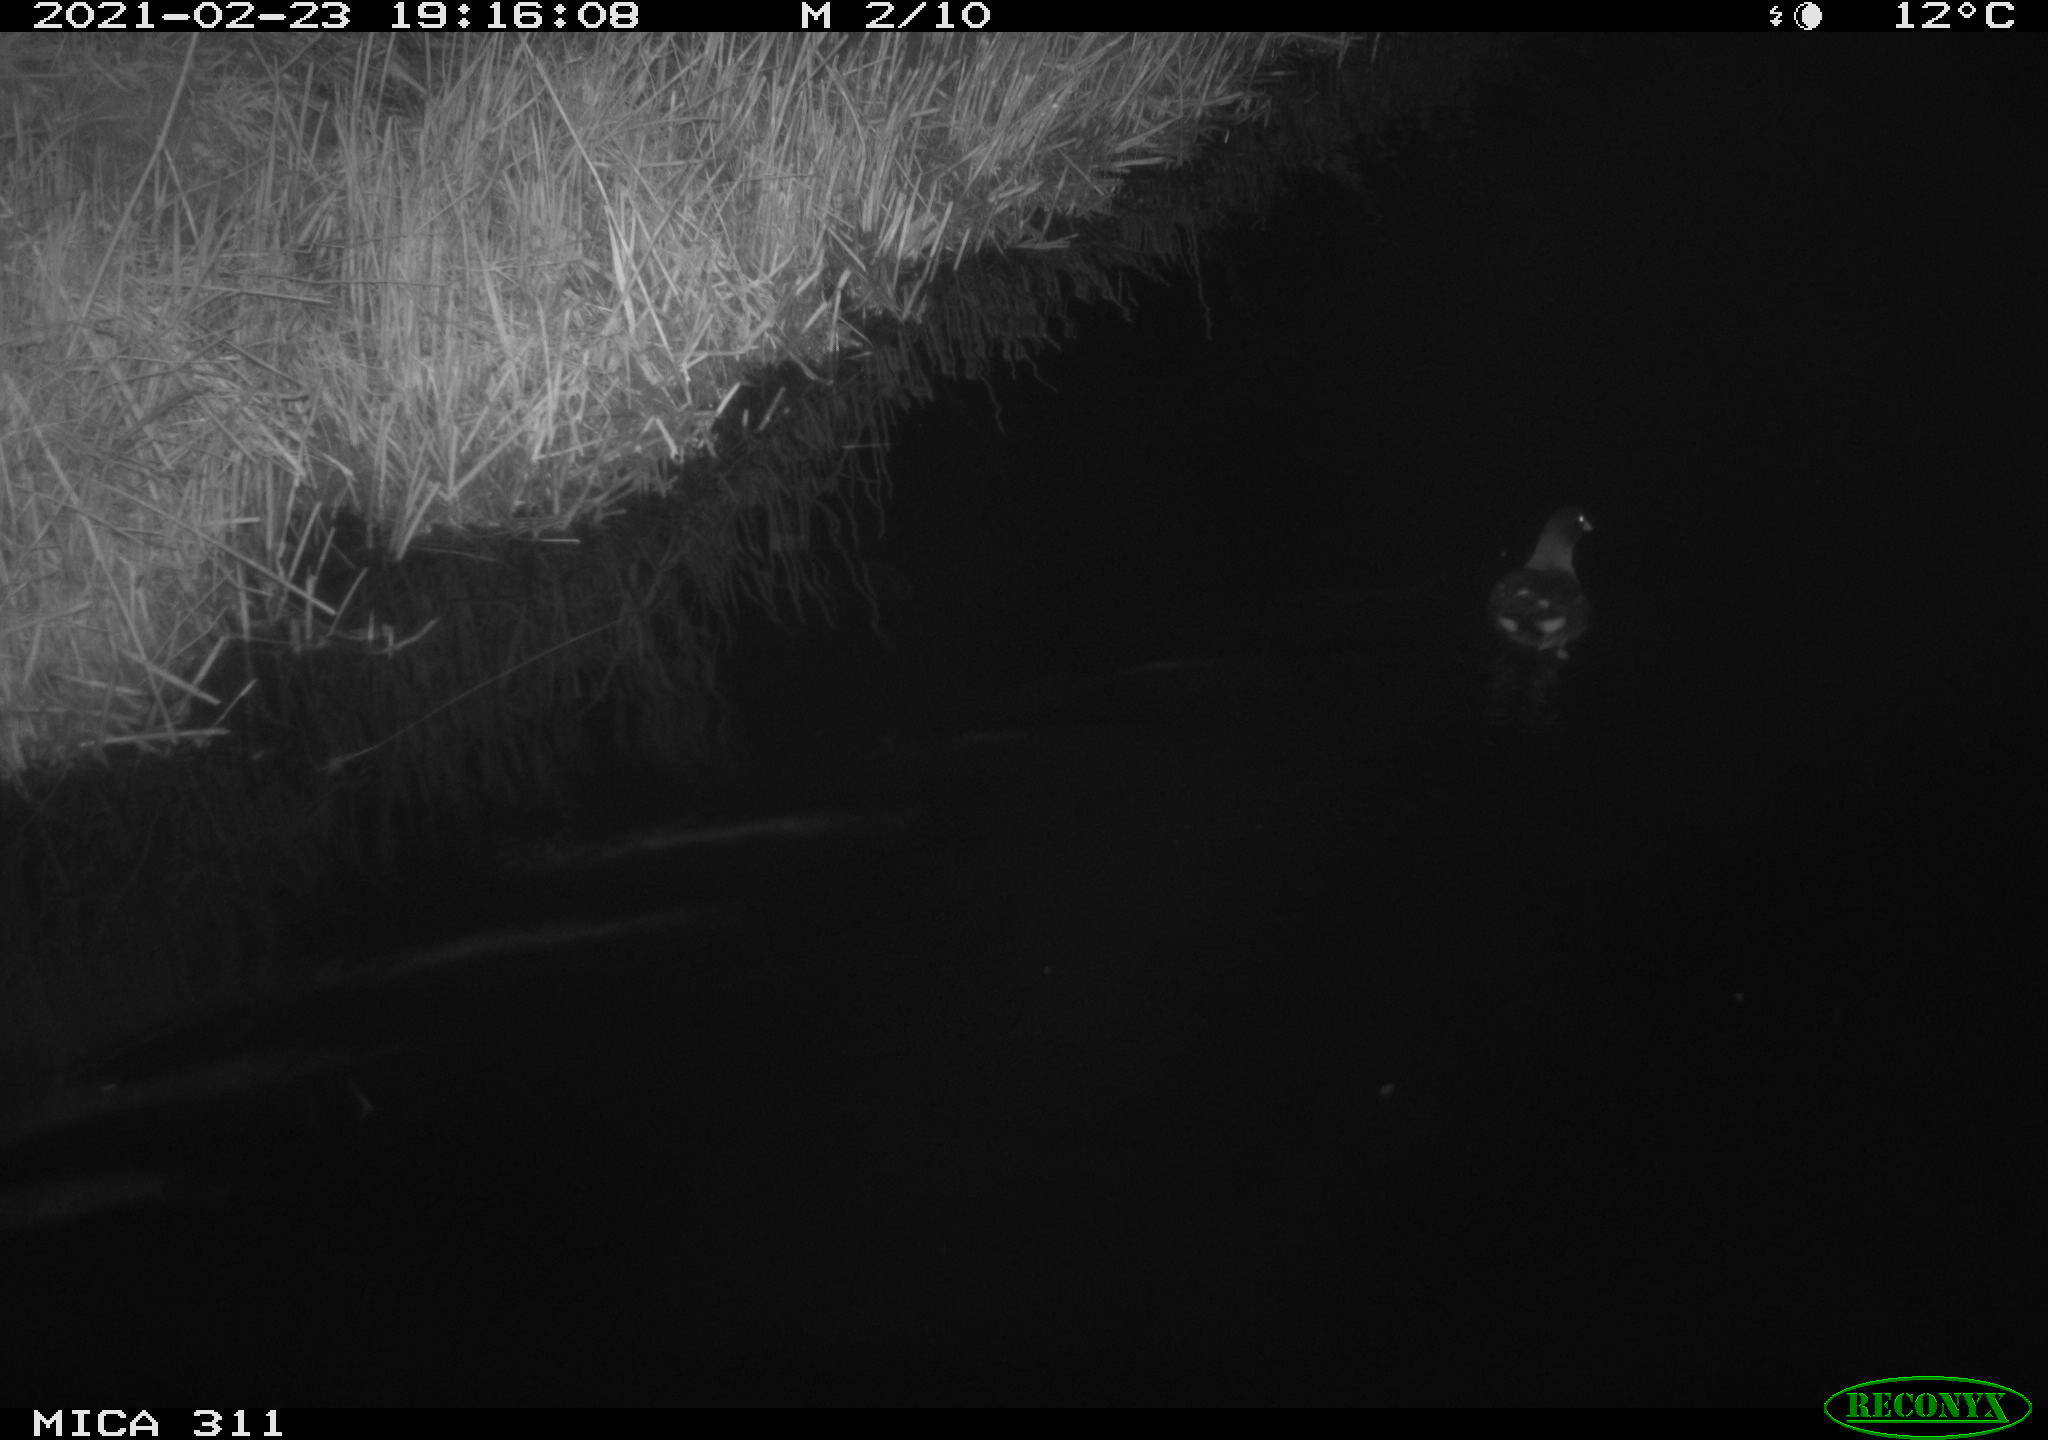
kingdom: Animalia
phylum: Chordata
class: Aves
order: Gruiformes
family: Rallidae
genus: Gallinula
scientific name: Gallinula chloropus
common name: Common moorhen
